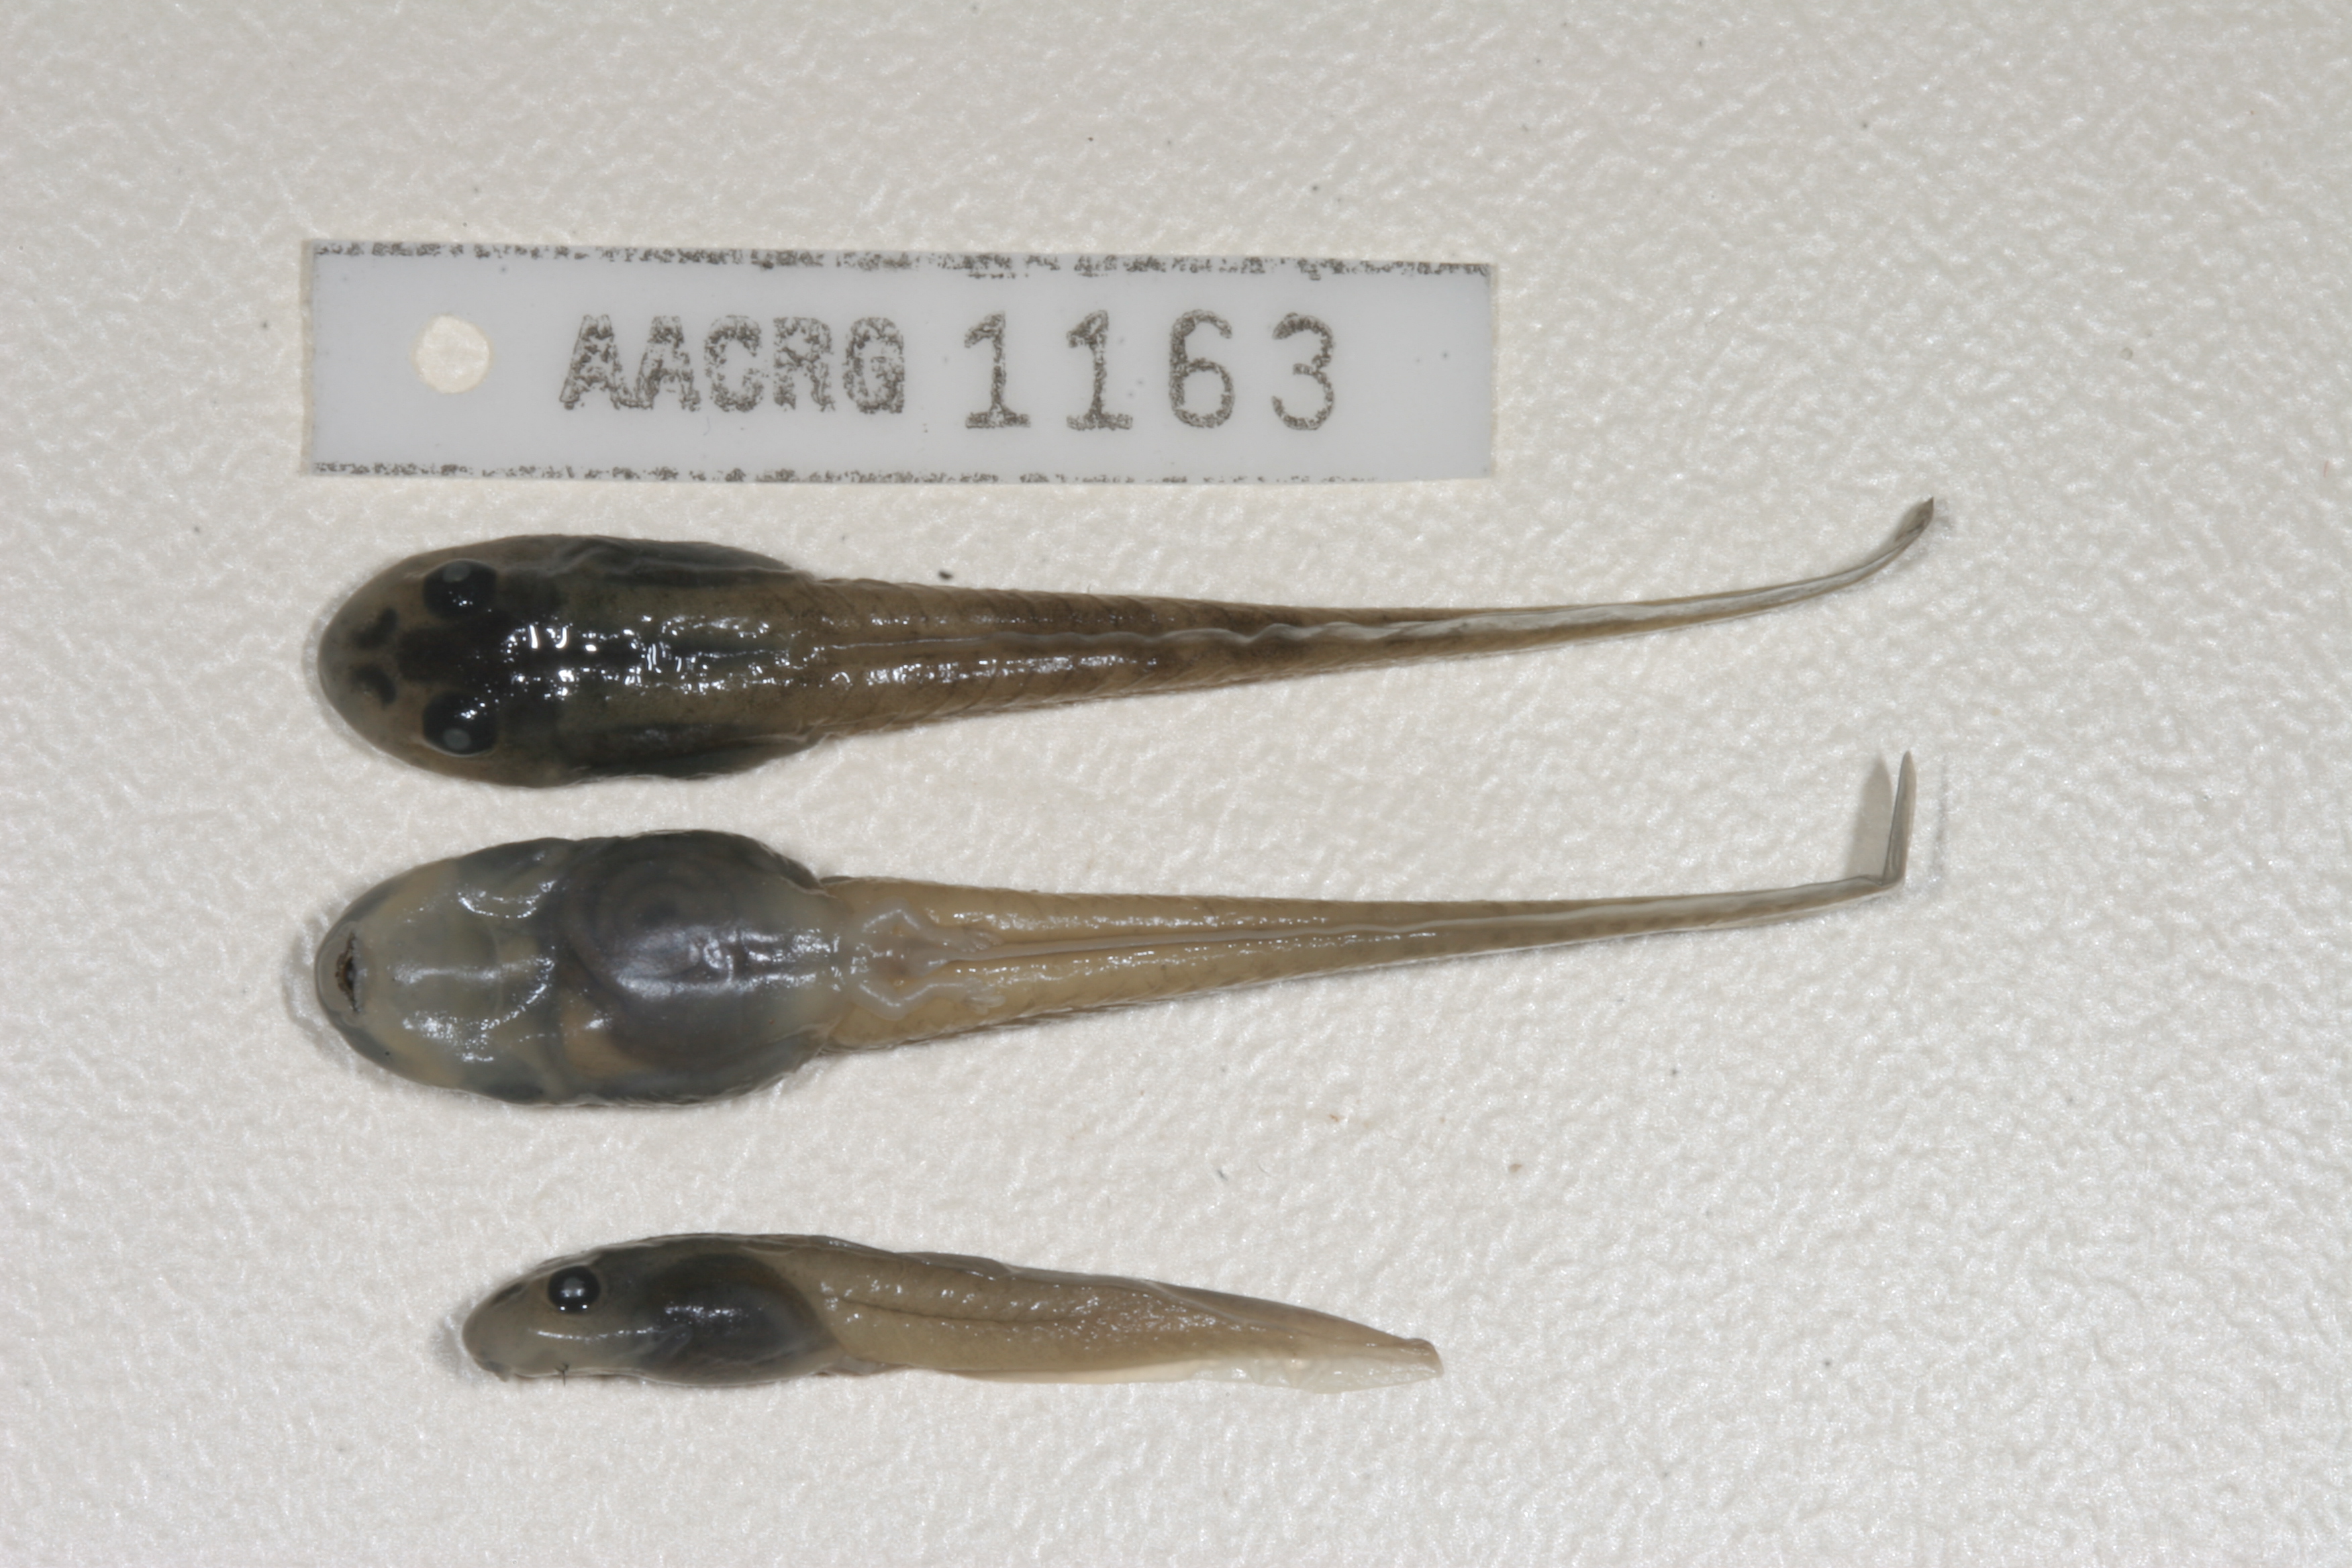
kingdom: Animalia
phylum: Chordata
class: Amphibia
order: Anura
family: Pyxicephalidae
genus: Amietia
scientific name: Amietia delalandii
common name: Delalande's river frog
